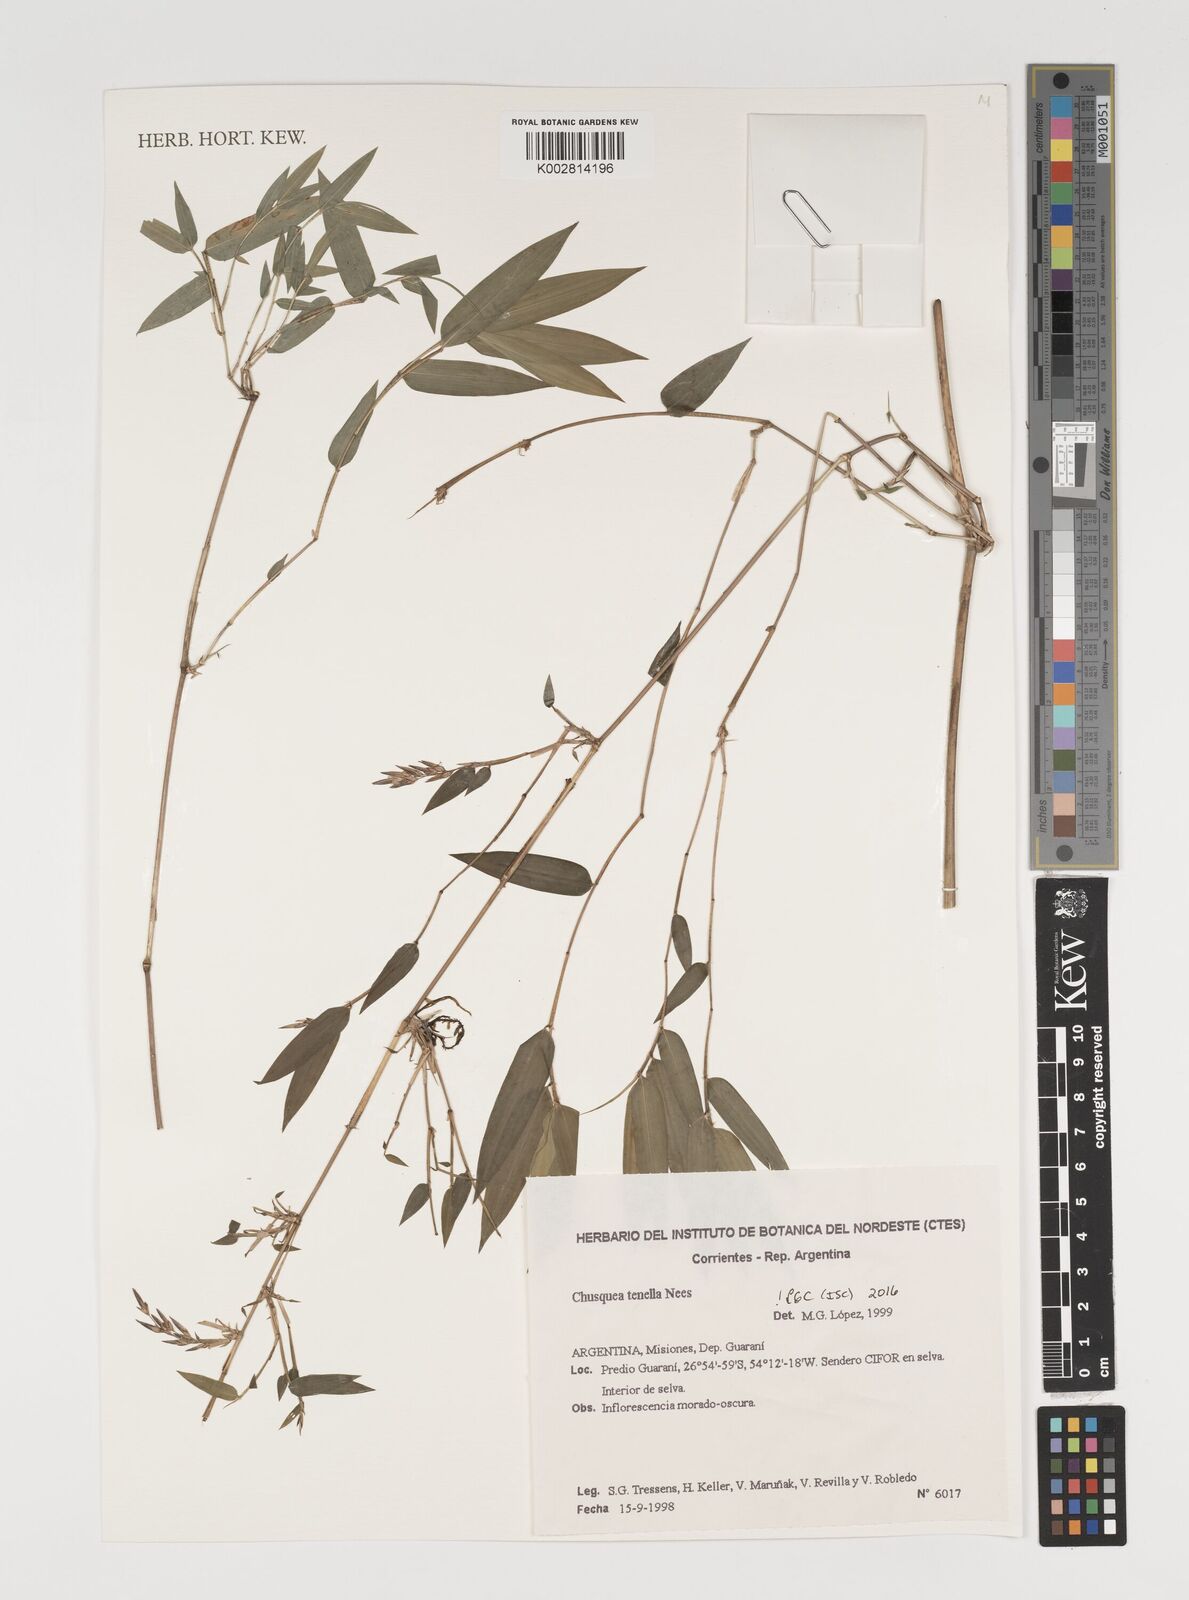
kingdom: Plantae
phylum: Tracheophyta
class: Liliopsida
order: Poales
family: Poaceae
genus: Chusquea
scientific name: Chusquea tenella
